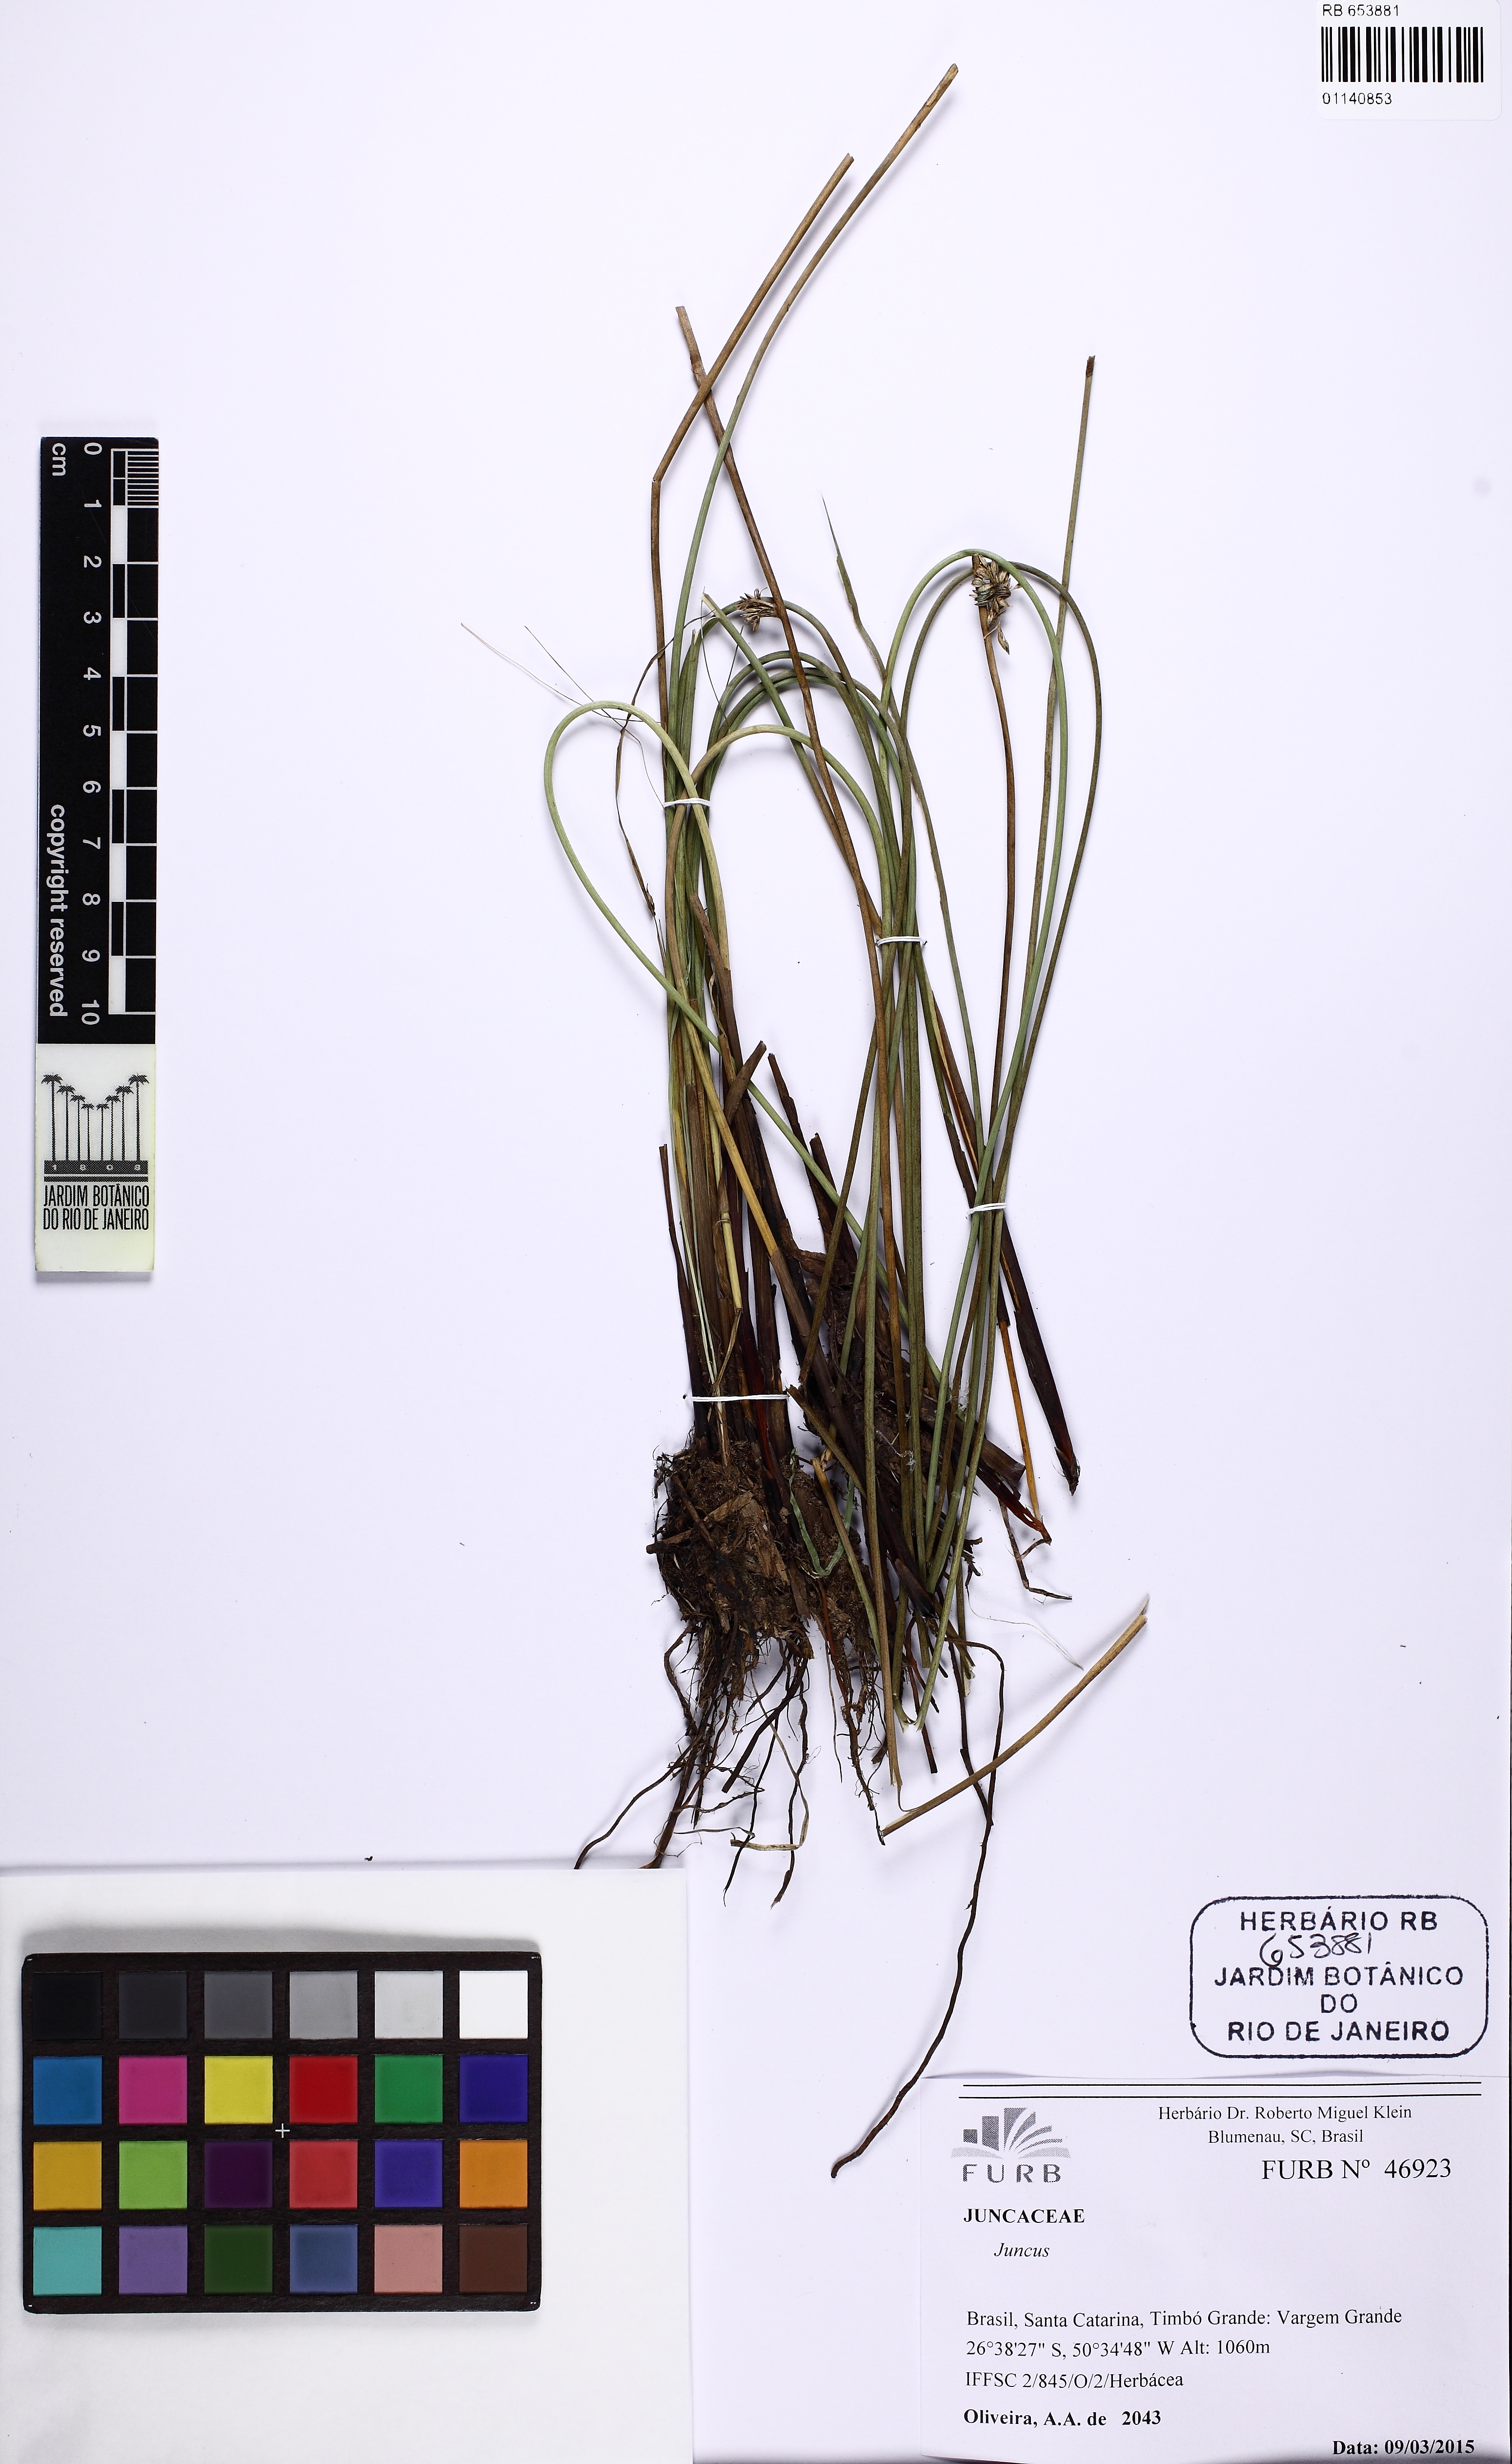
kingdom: Plantae
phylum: Tracheophyta
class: Liliopsida
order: Poales
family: Juncaceae
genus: Juncus
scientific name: Juncus
